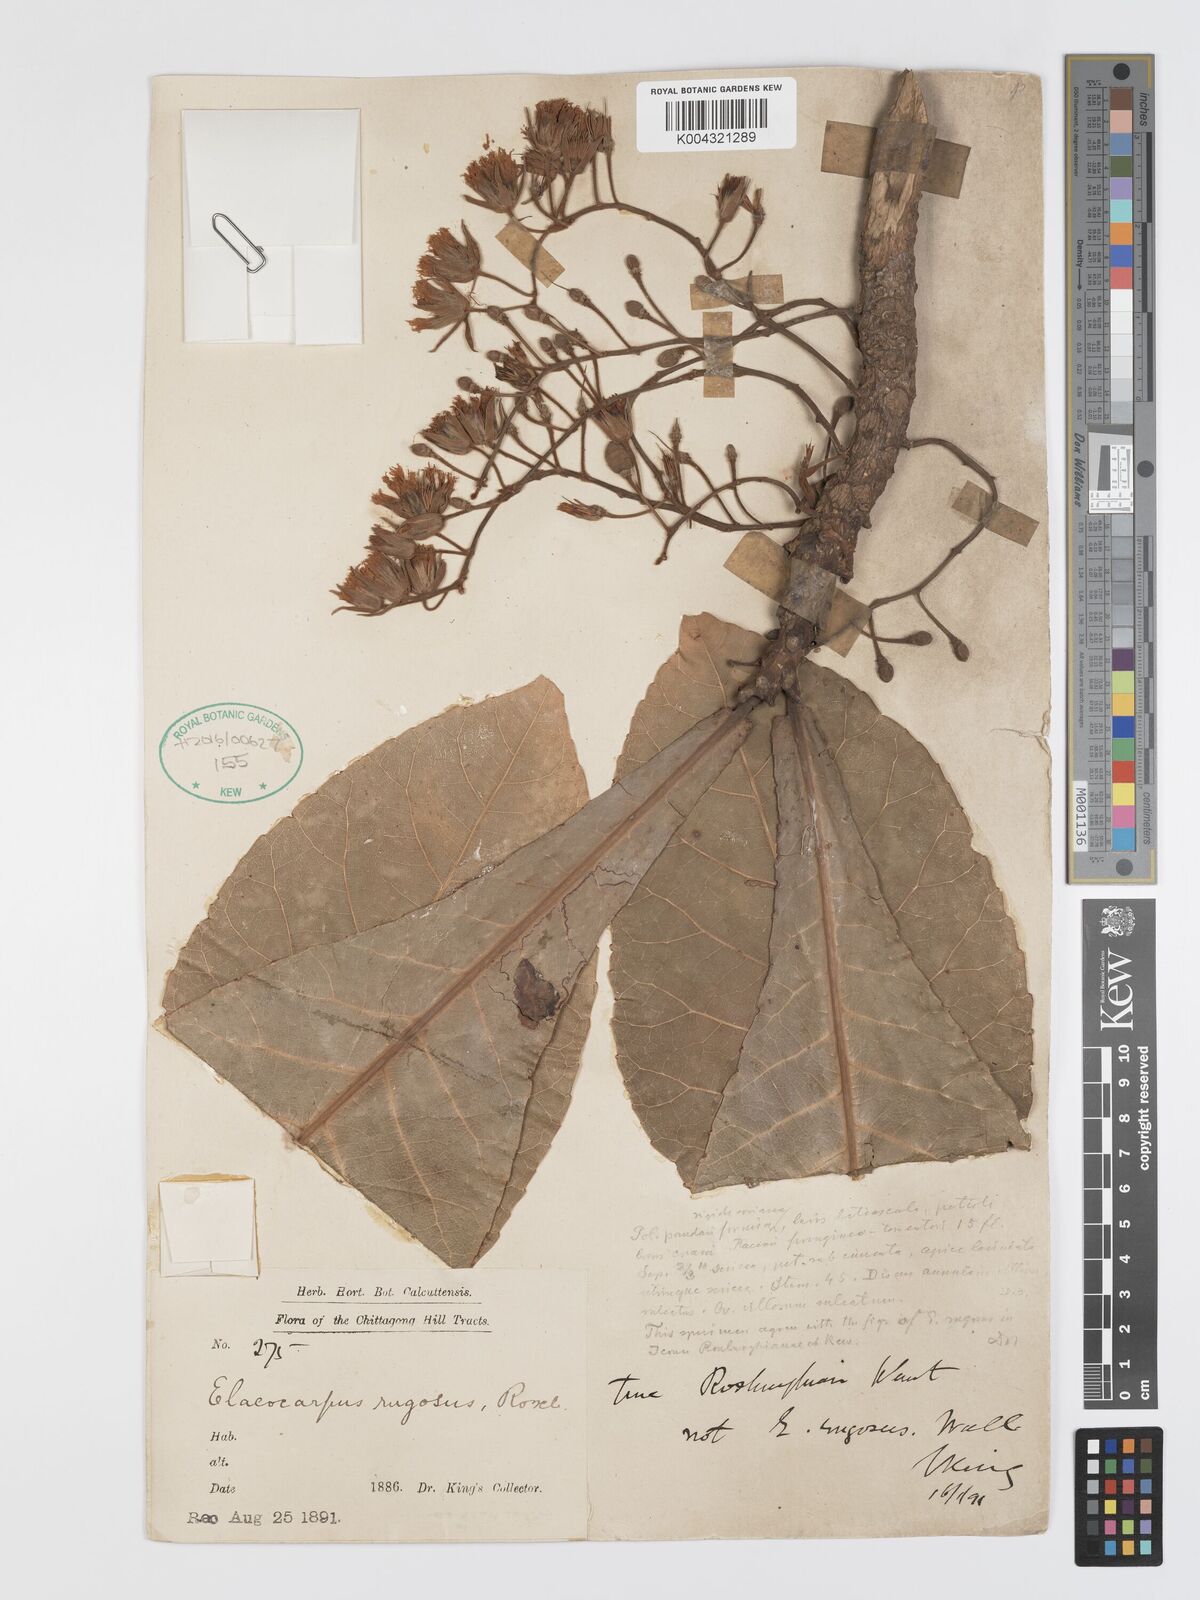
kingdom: Plantae
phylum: Tracheophyta
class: Magnoliopsida
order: Oxalidales
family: Elaeocarpaceae
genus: Elaeocarpus
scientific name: Elaeocarpus rugosus
